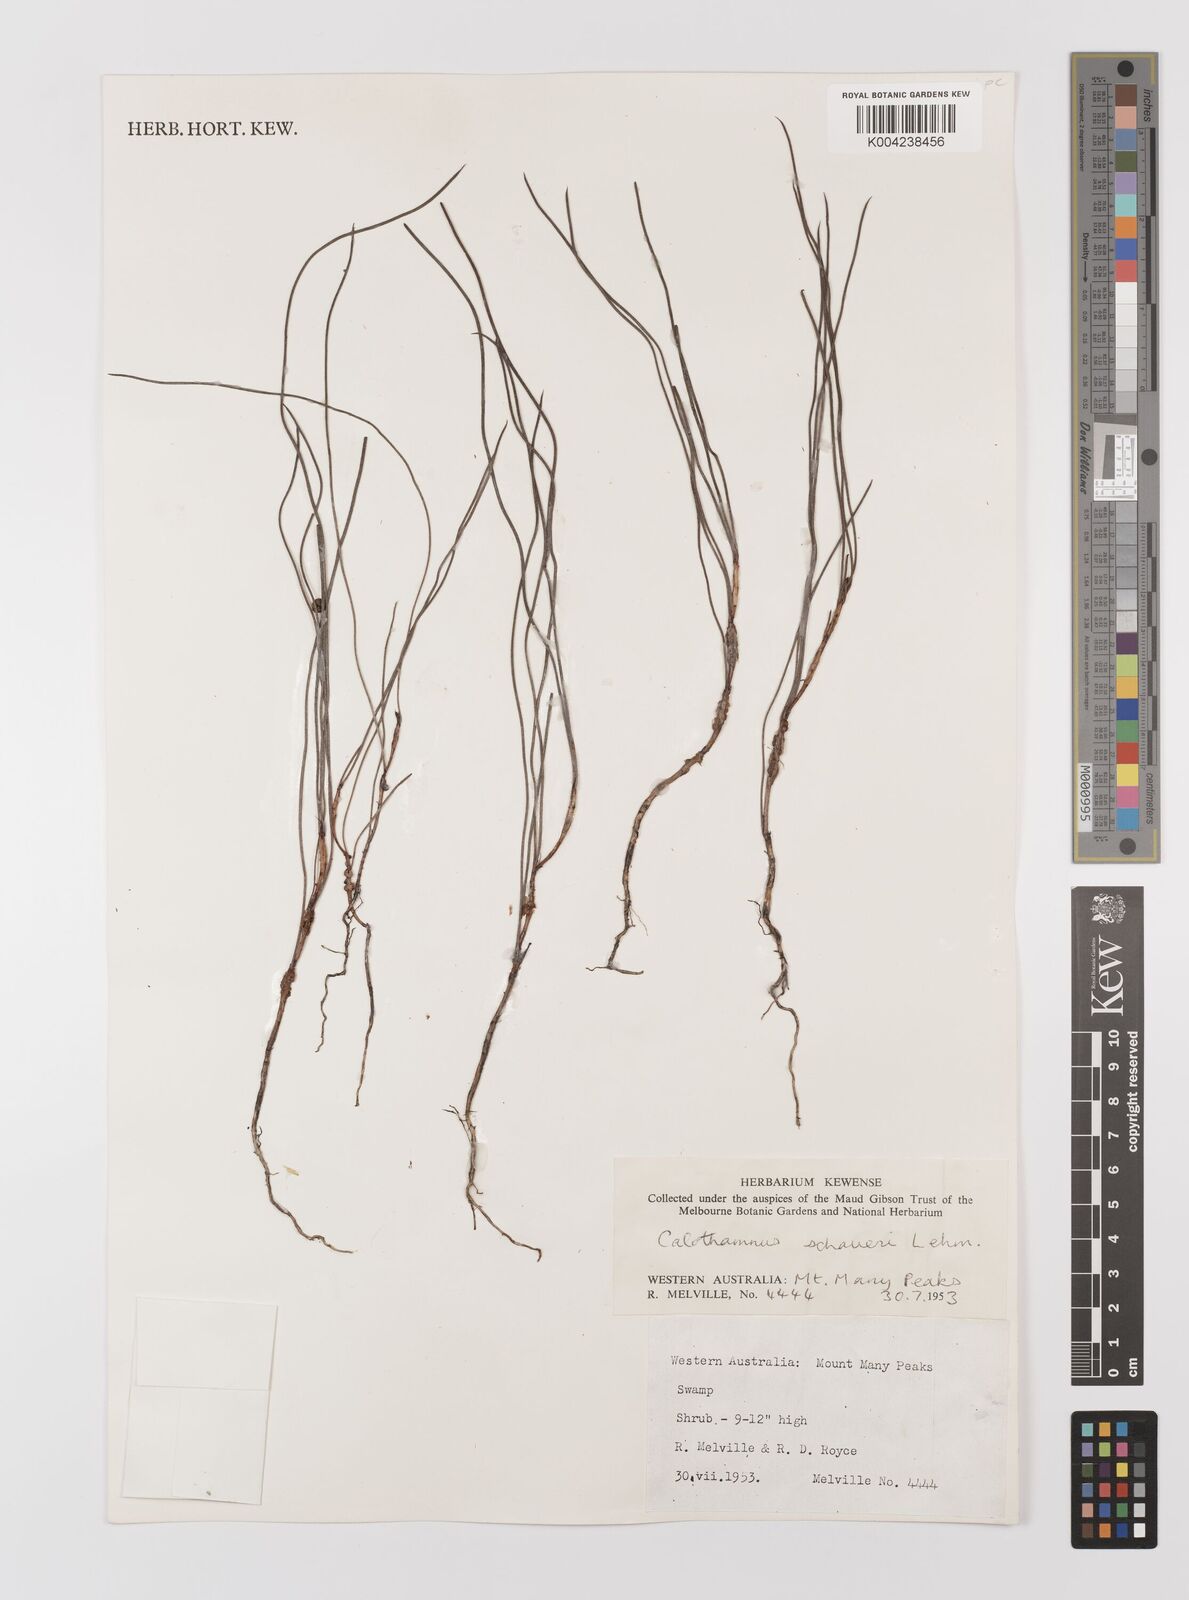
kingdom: Plantae
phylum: Tracheophyta
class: Magnoliopsida
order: Myrtales
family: Myrtaceae
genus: Melaleuca
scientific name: Melaleuca schaueri
